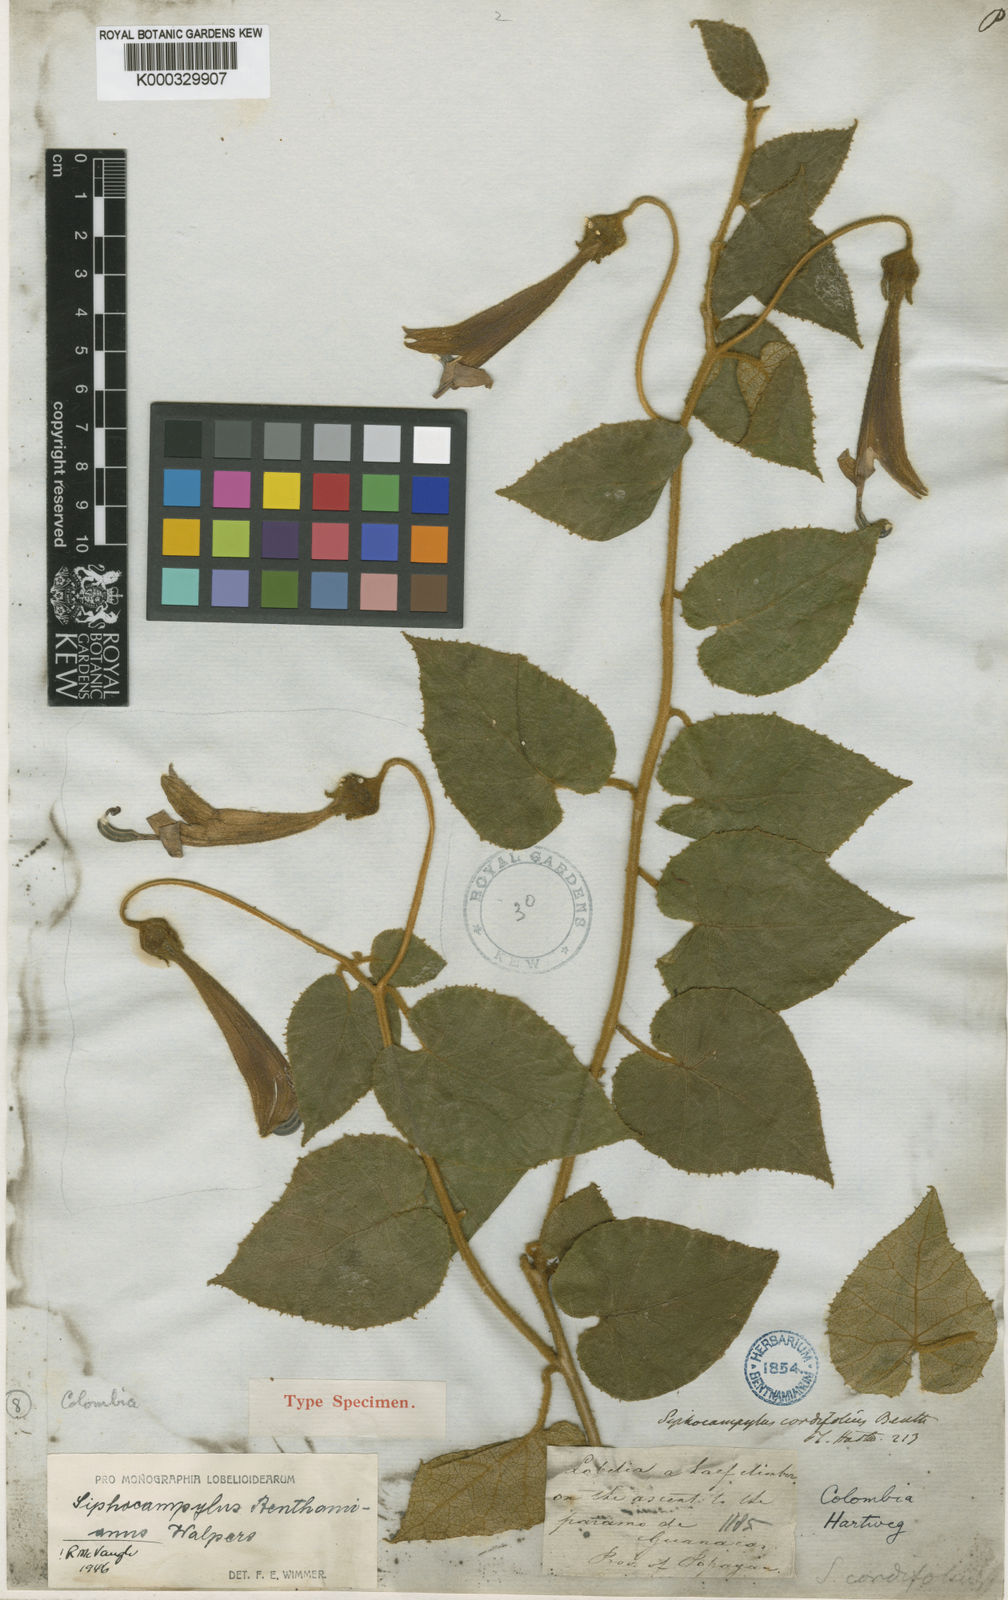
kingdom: Plantae
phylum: Tracheophyta
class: Magnoliopsida
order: Asterales
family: Campanulaceae
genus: Siphocampylus
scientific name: Siphocampylus benthamianus
